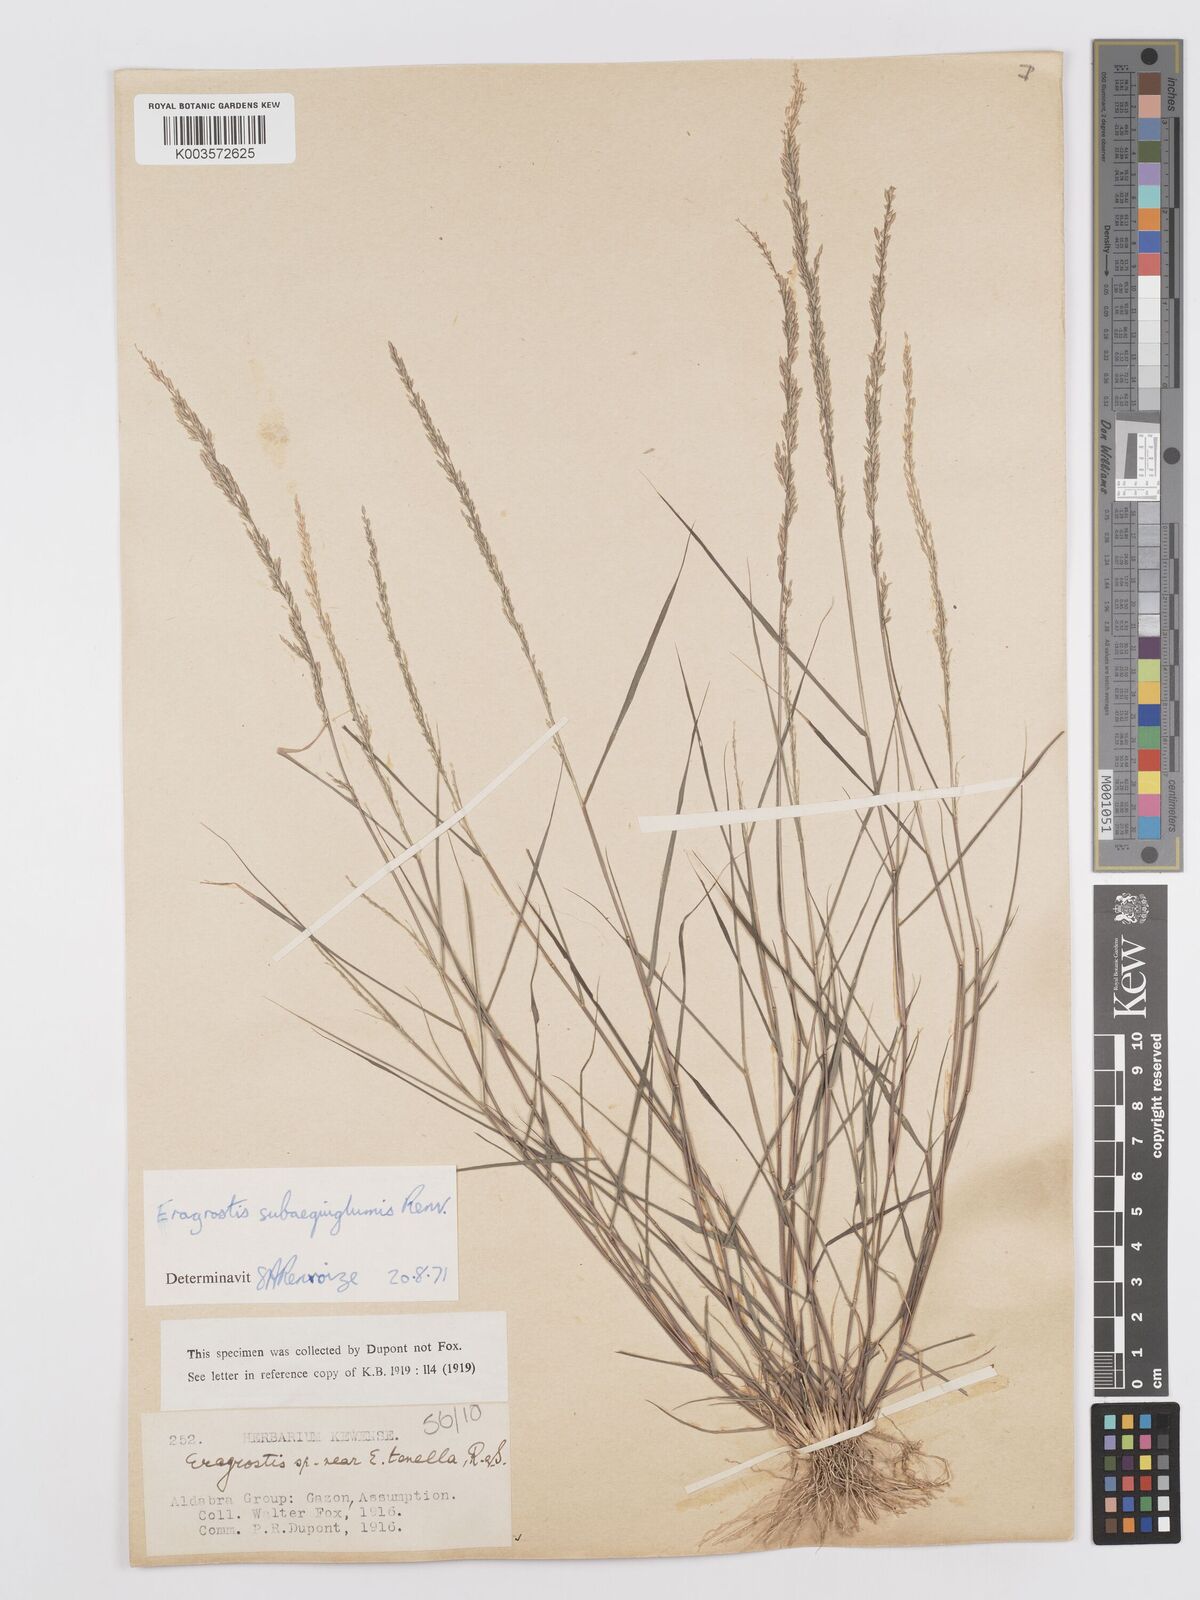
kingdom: Plantae
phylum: Tracheophyta
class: Liliopsida
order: Poales
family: Poaceae
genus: Eragrostis
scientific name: Eragrostis subaequiglumis
